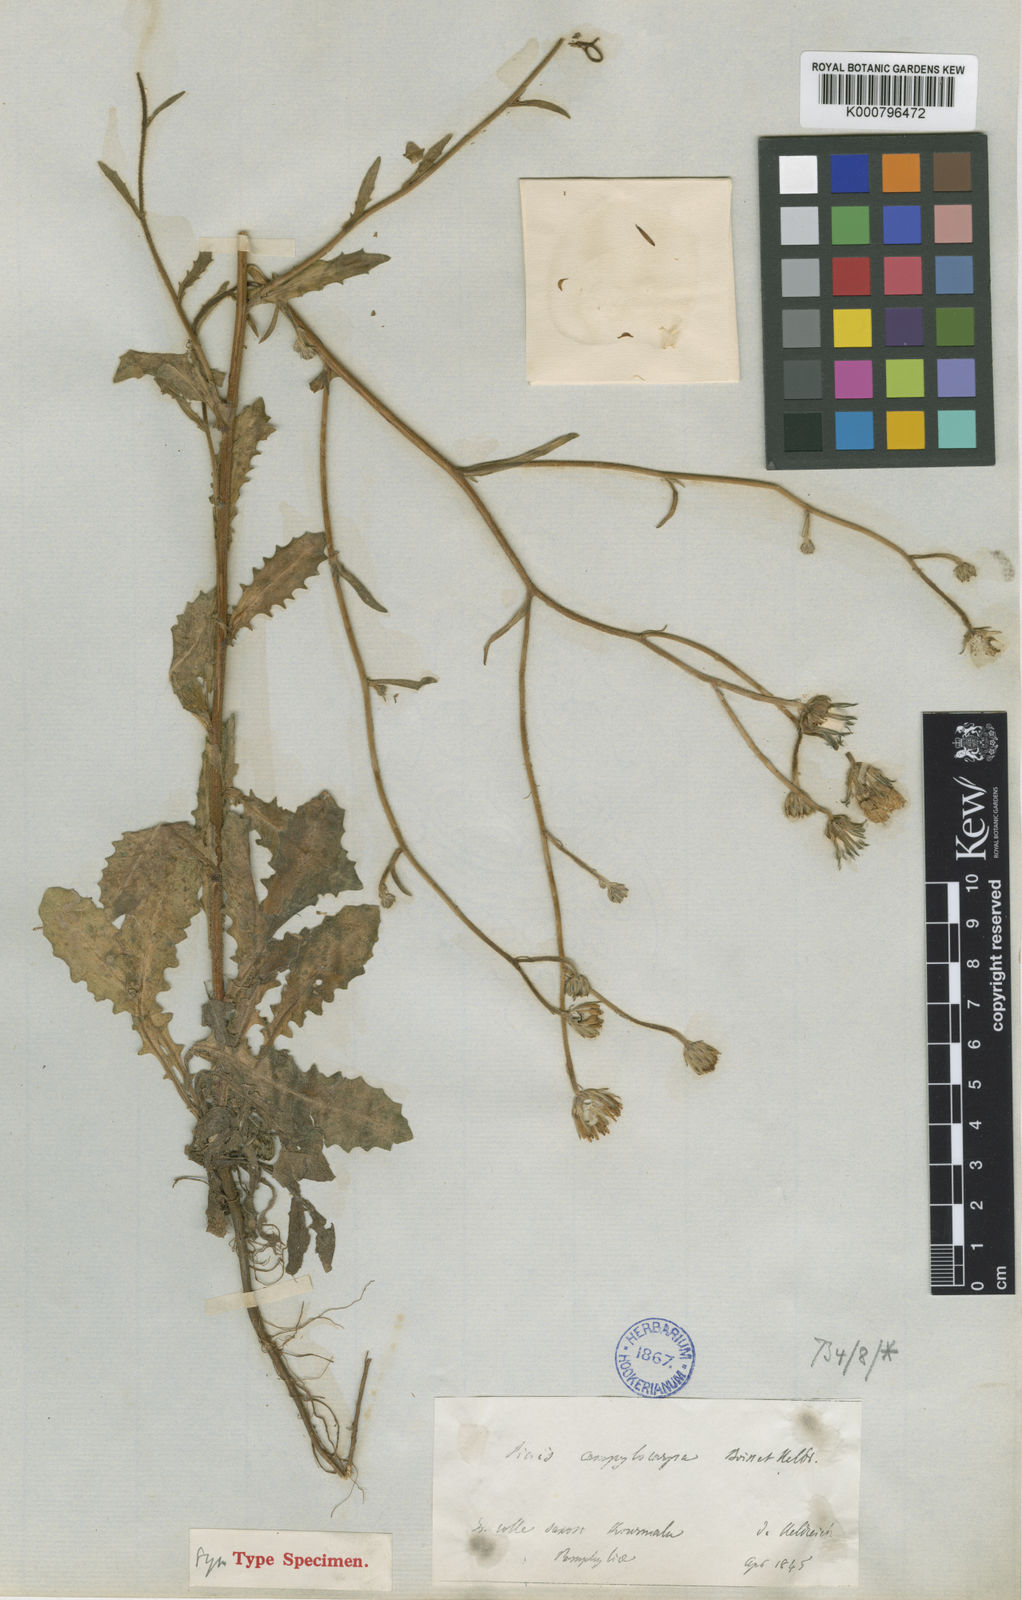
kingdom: Plantae
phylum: Tracheophyta
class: Magnoliopsida
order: Asterales
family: Asteraceae
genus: Picris
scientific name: Picris cyanocarpa
